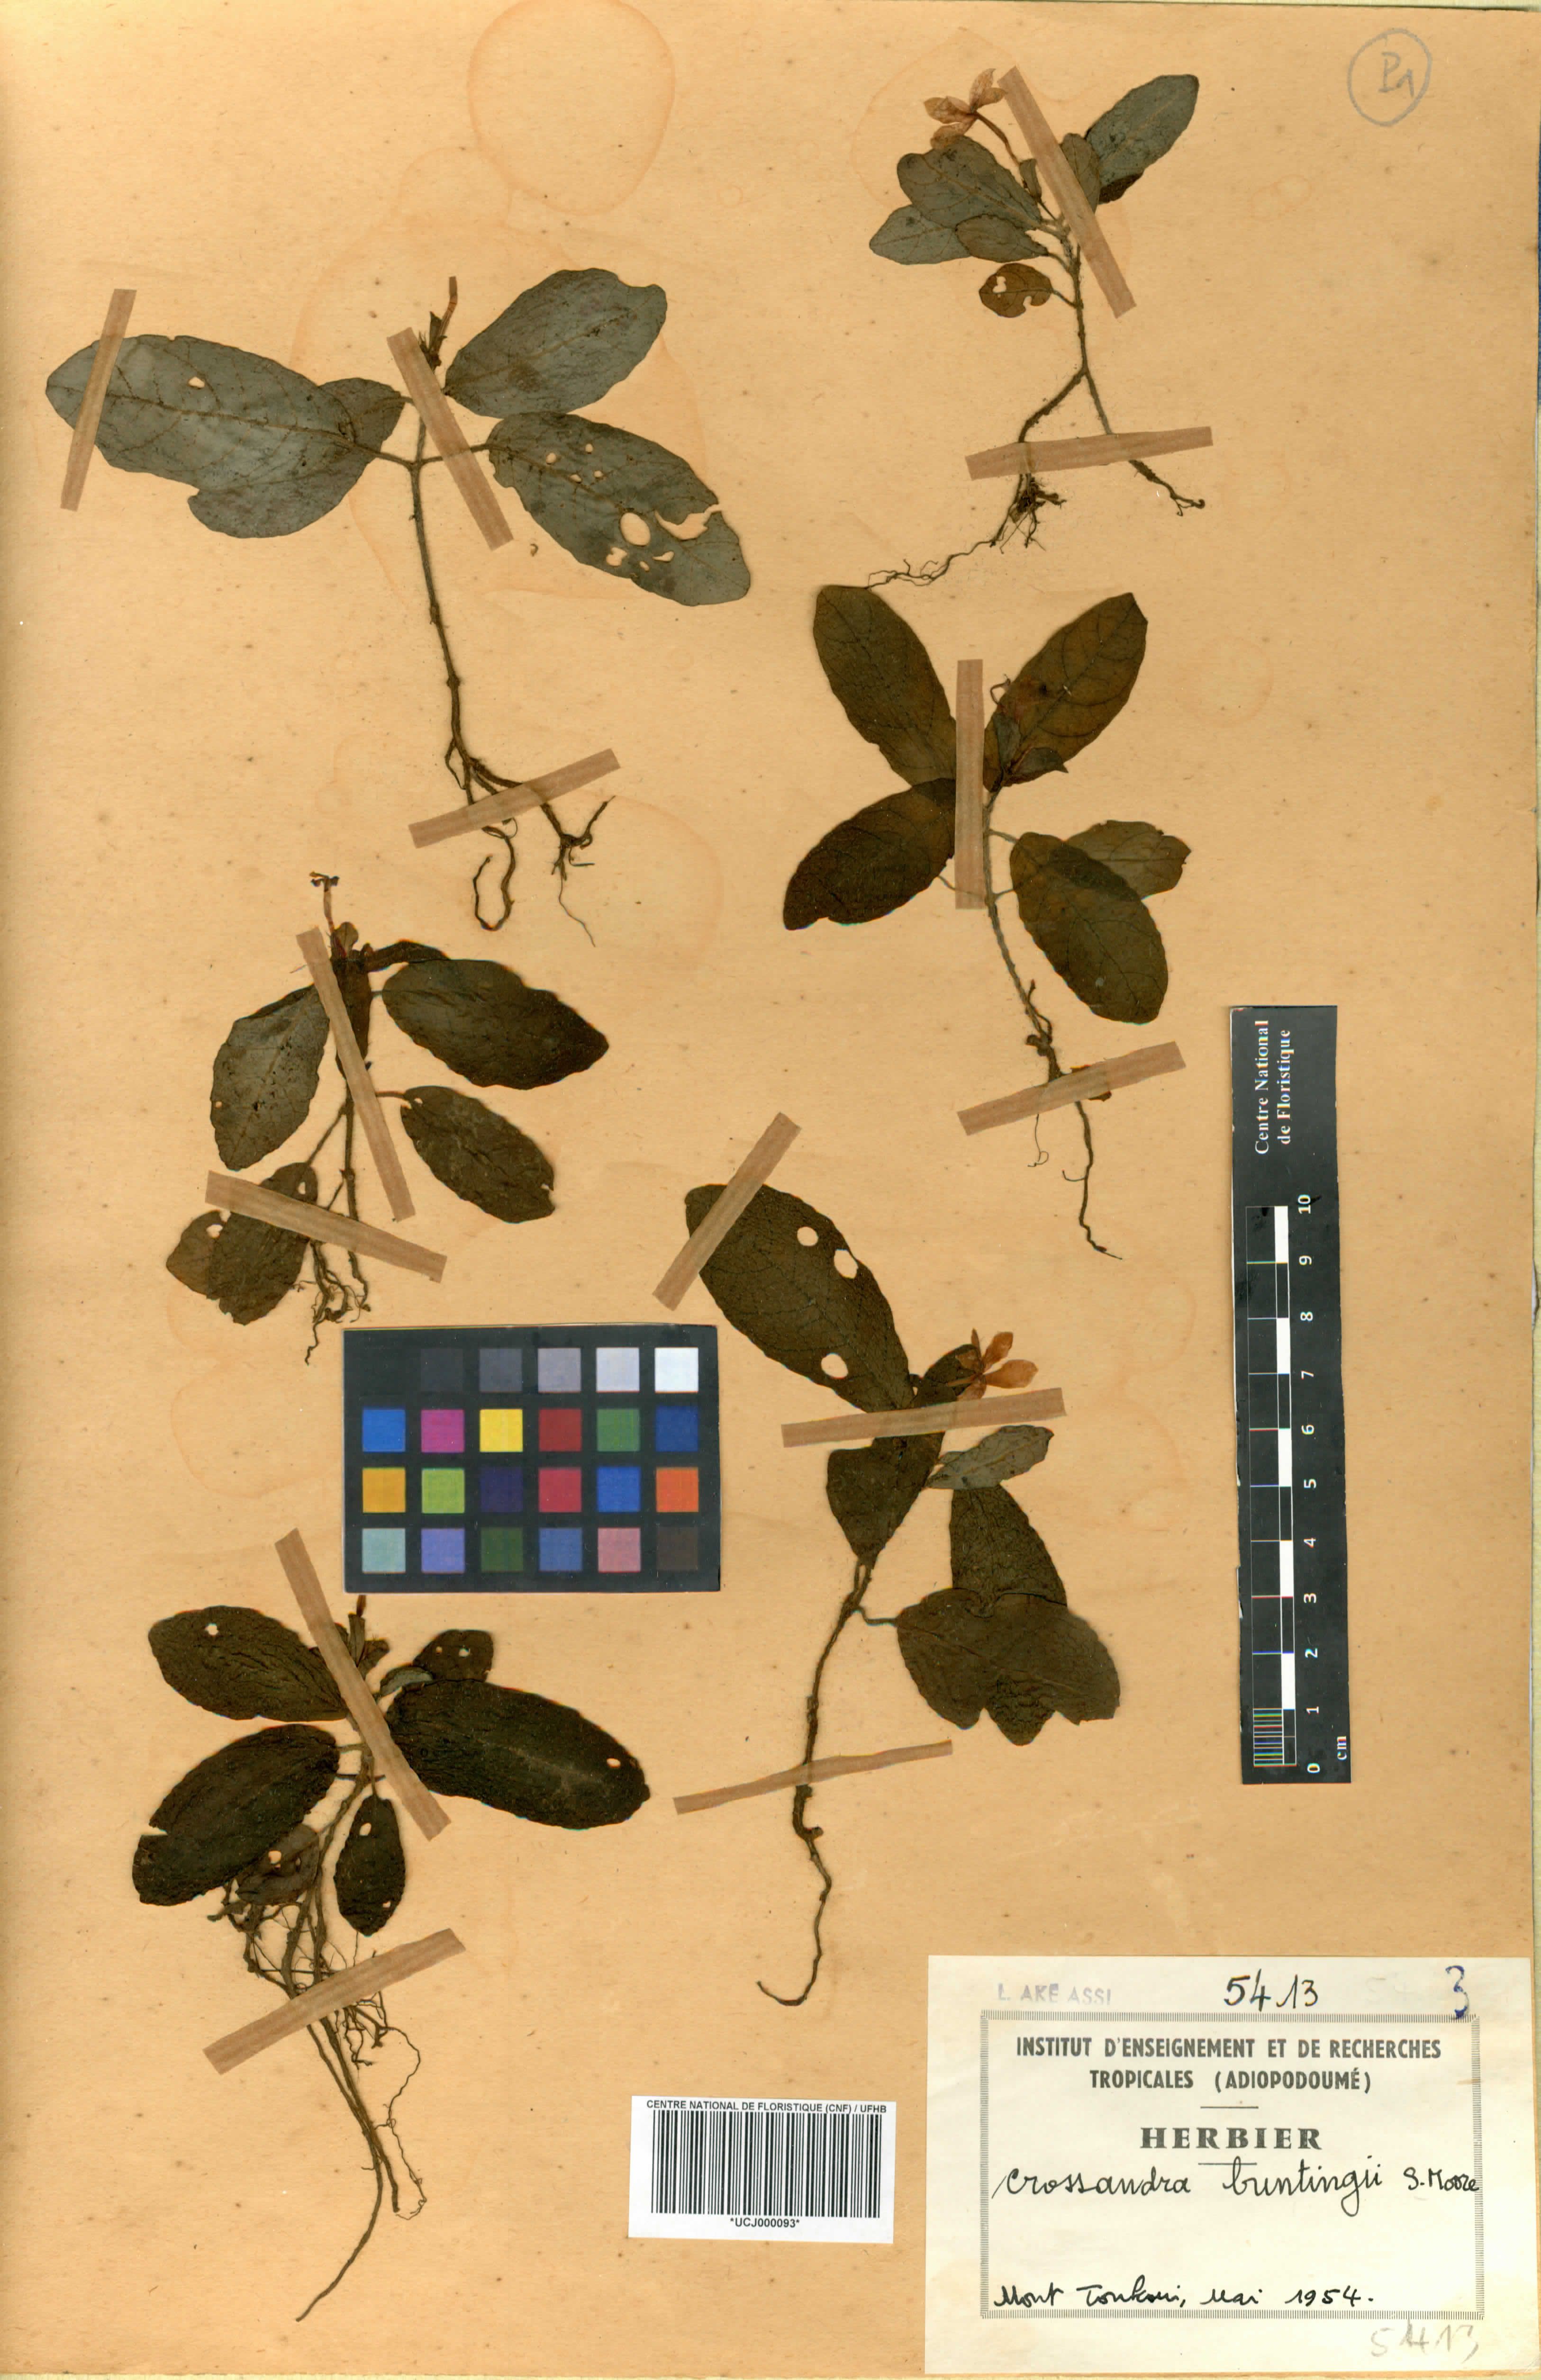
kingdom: Plantae
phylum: Tracheophyta
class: Magnoliopsida
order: Lamiales
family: Acanthaceae
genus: Stenandriopsis
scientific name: Stenandriopsis buntingii
